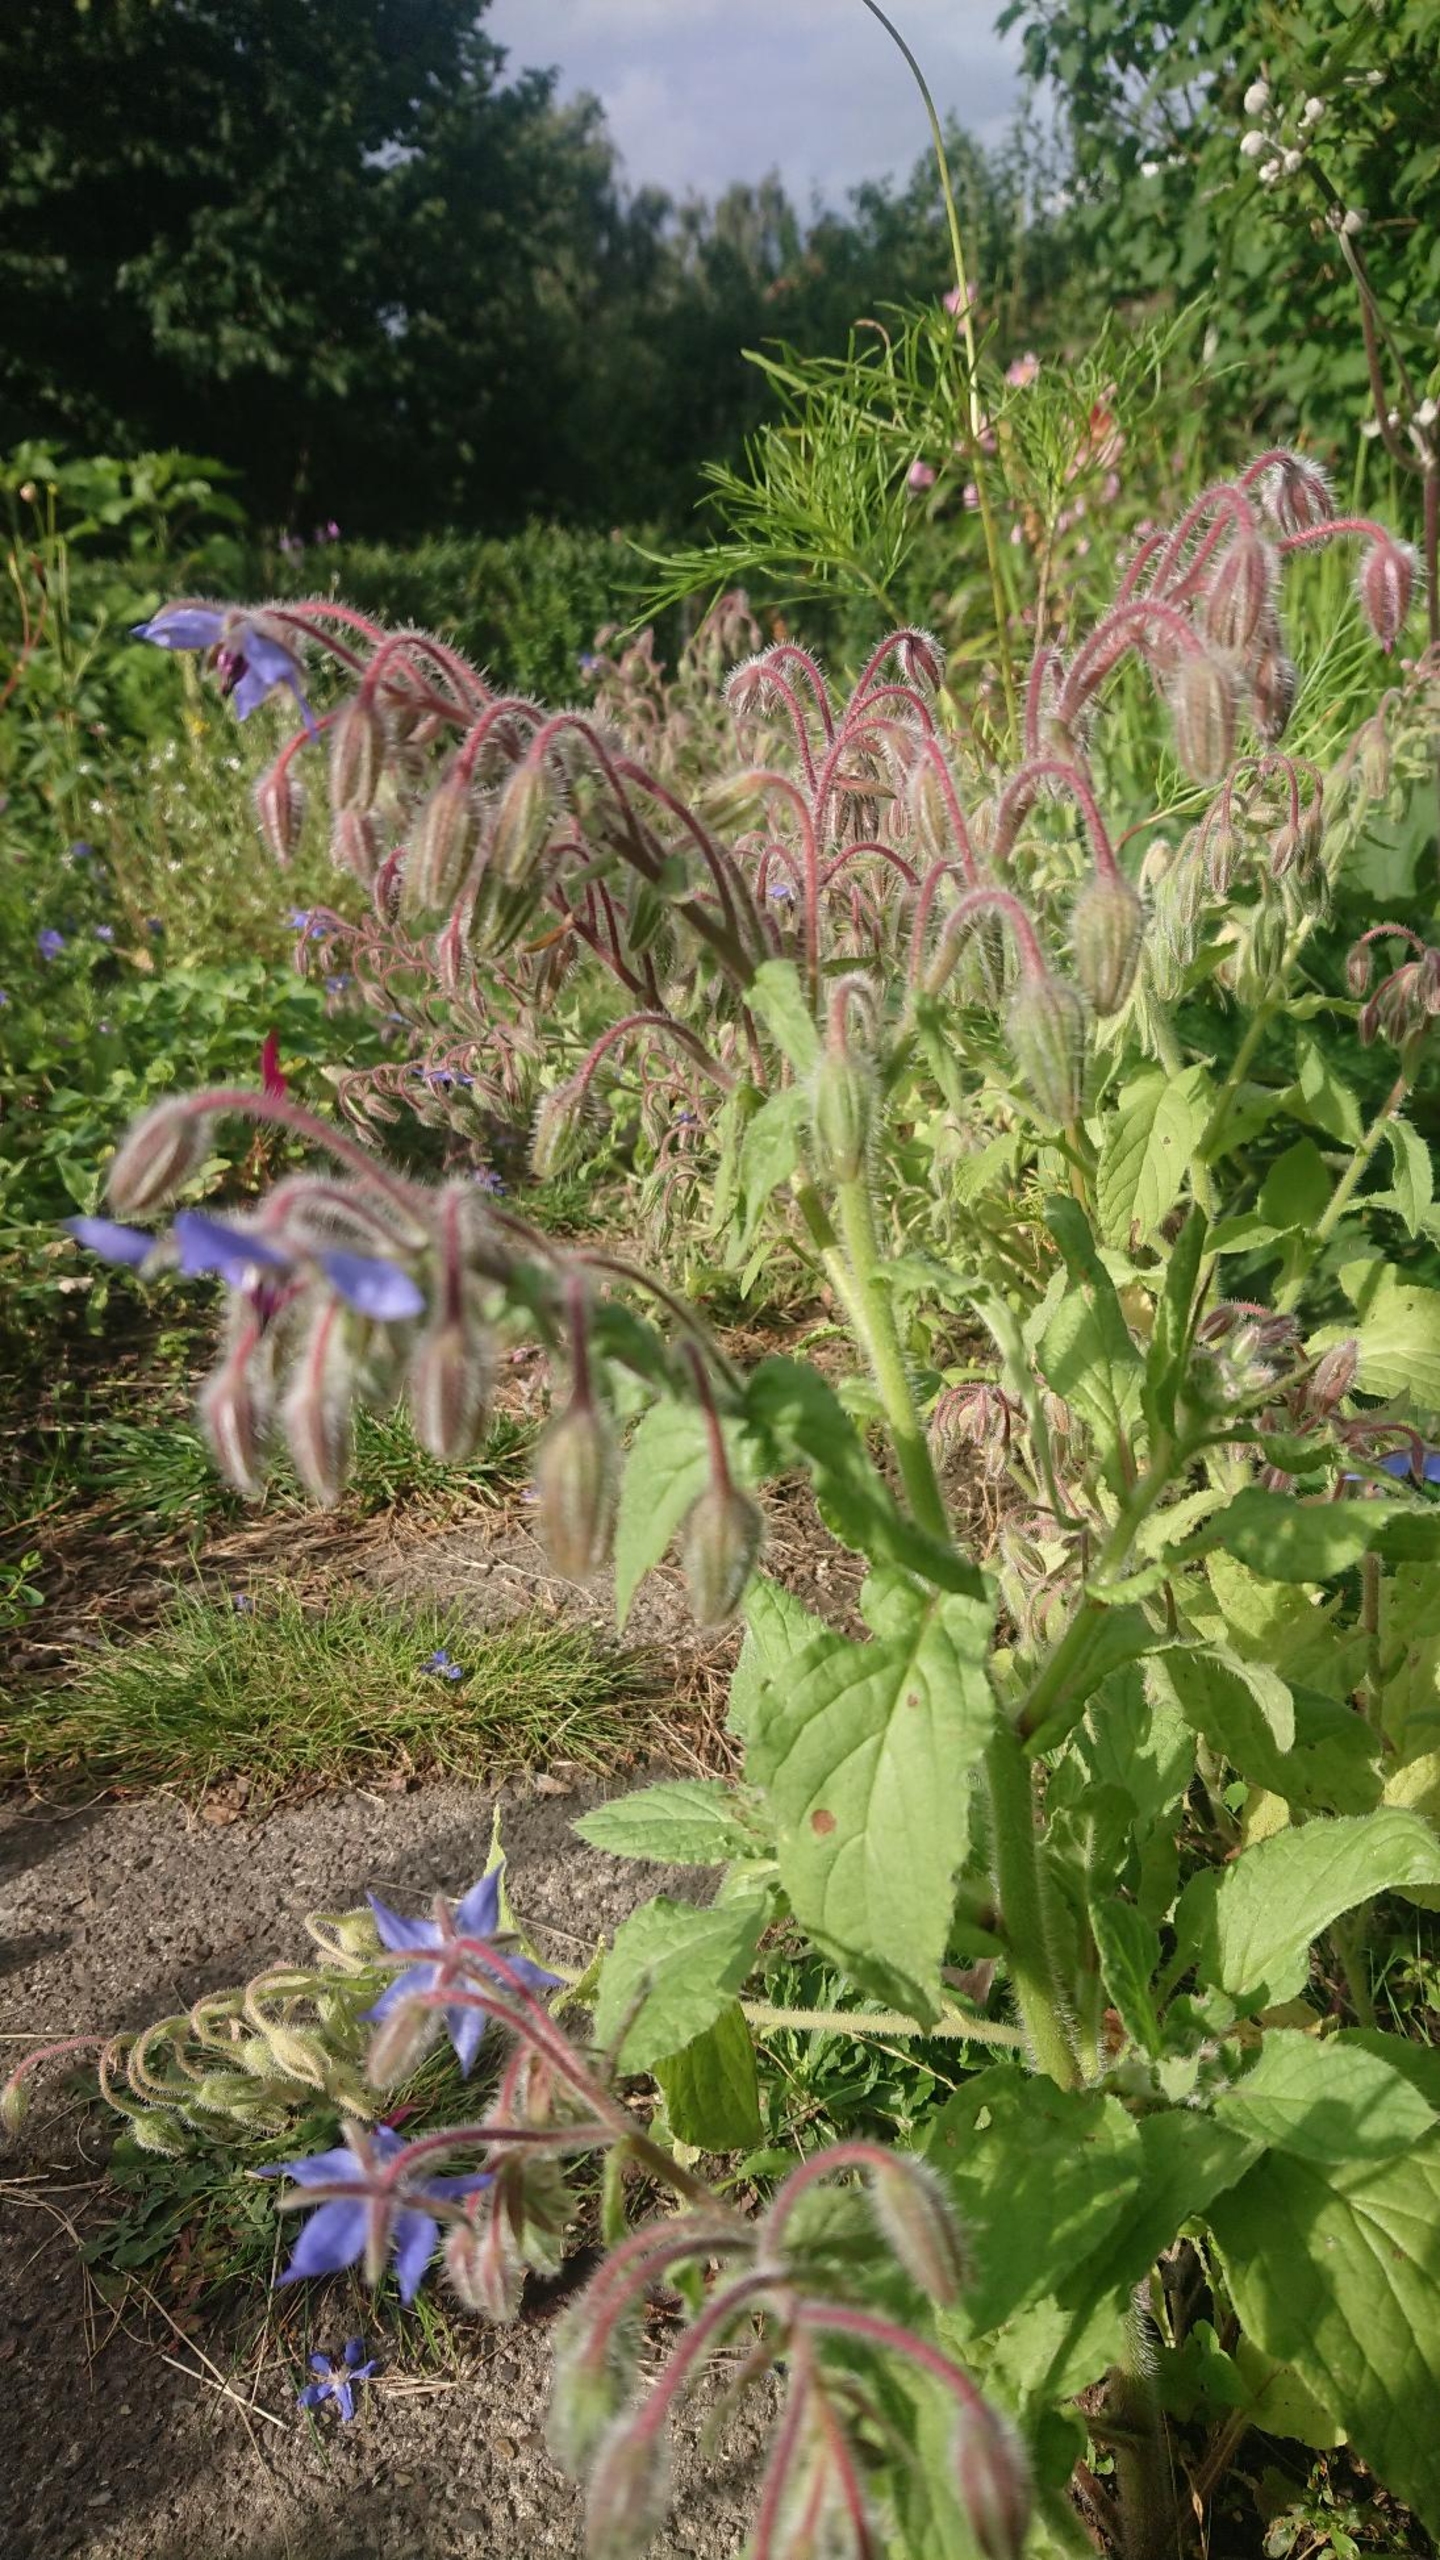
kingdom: Plantae
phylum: Tracheophyta
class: Magnoliopsida
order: Boraginales
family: Boraginaceae
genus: Borago
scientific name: Borago officinalis
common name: Hjulkrone
